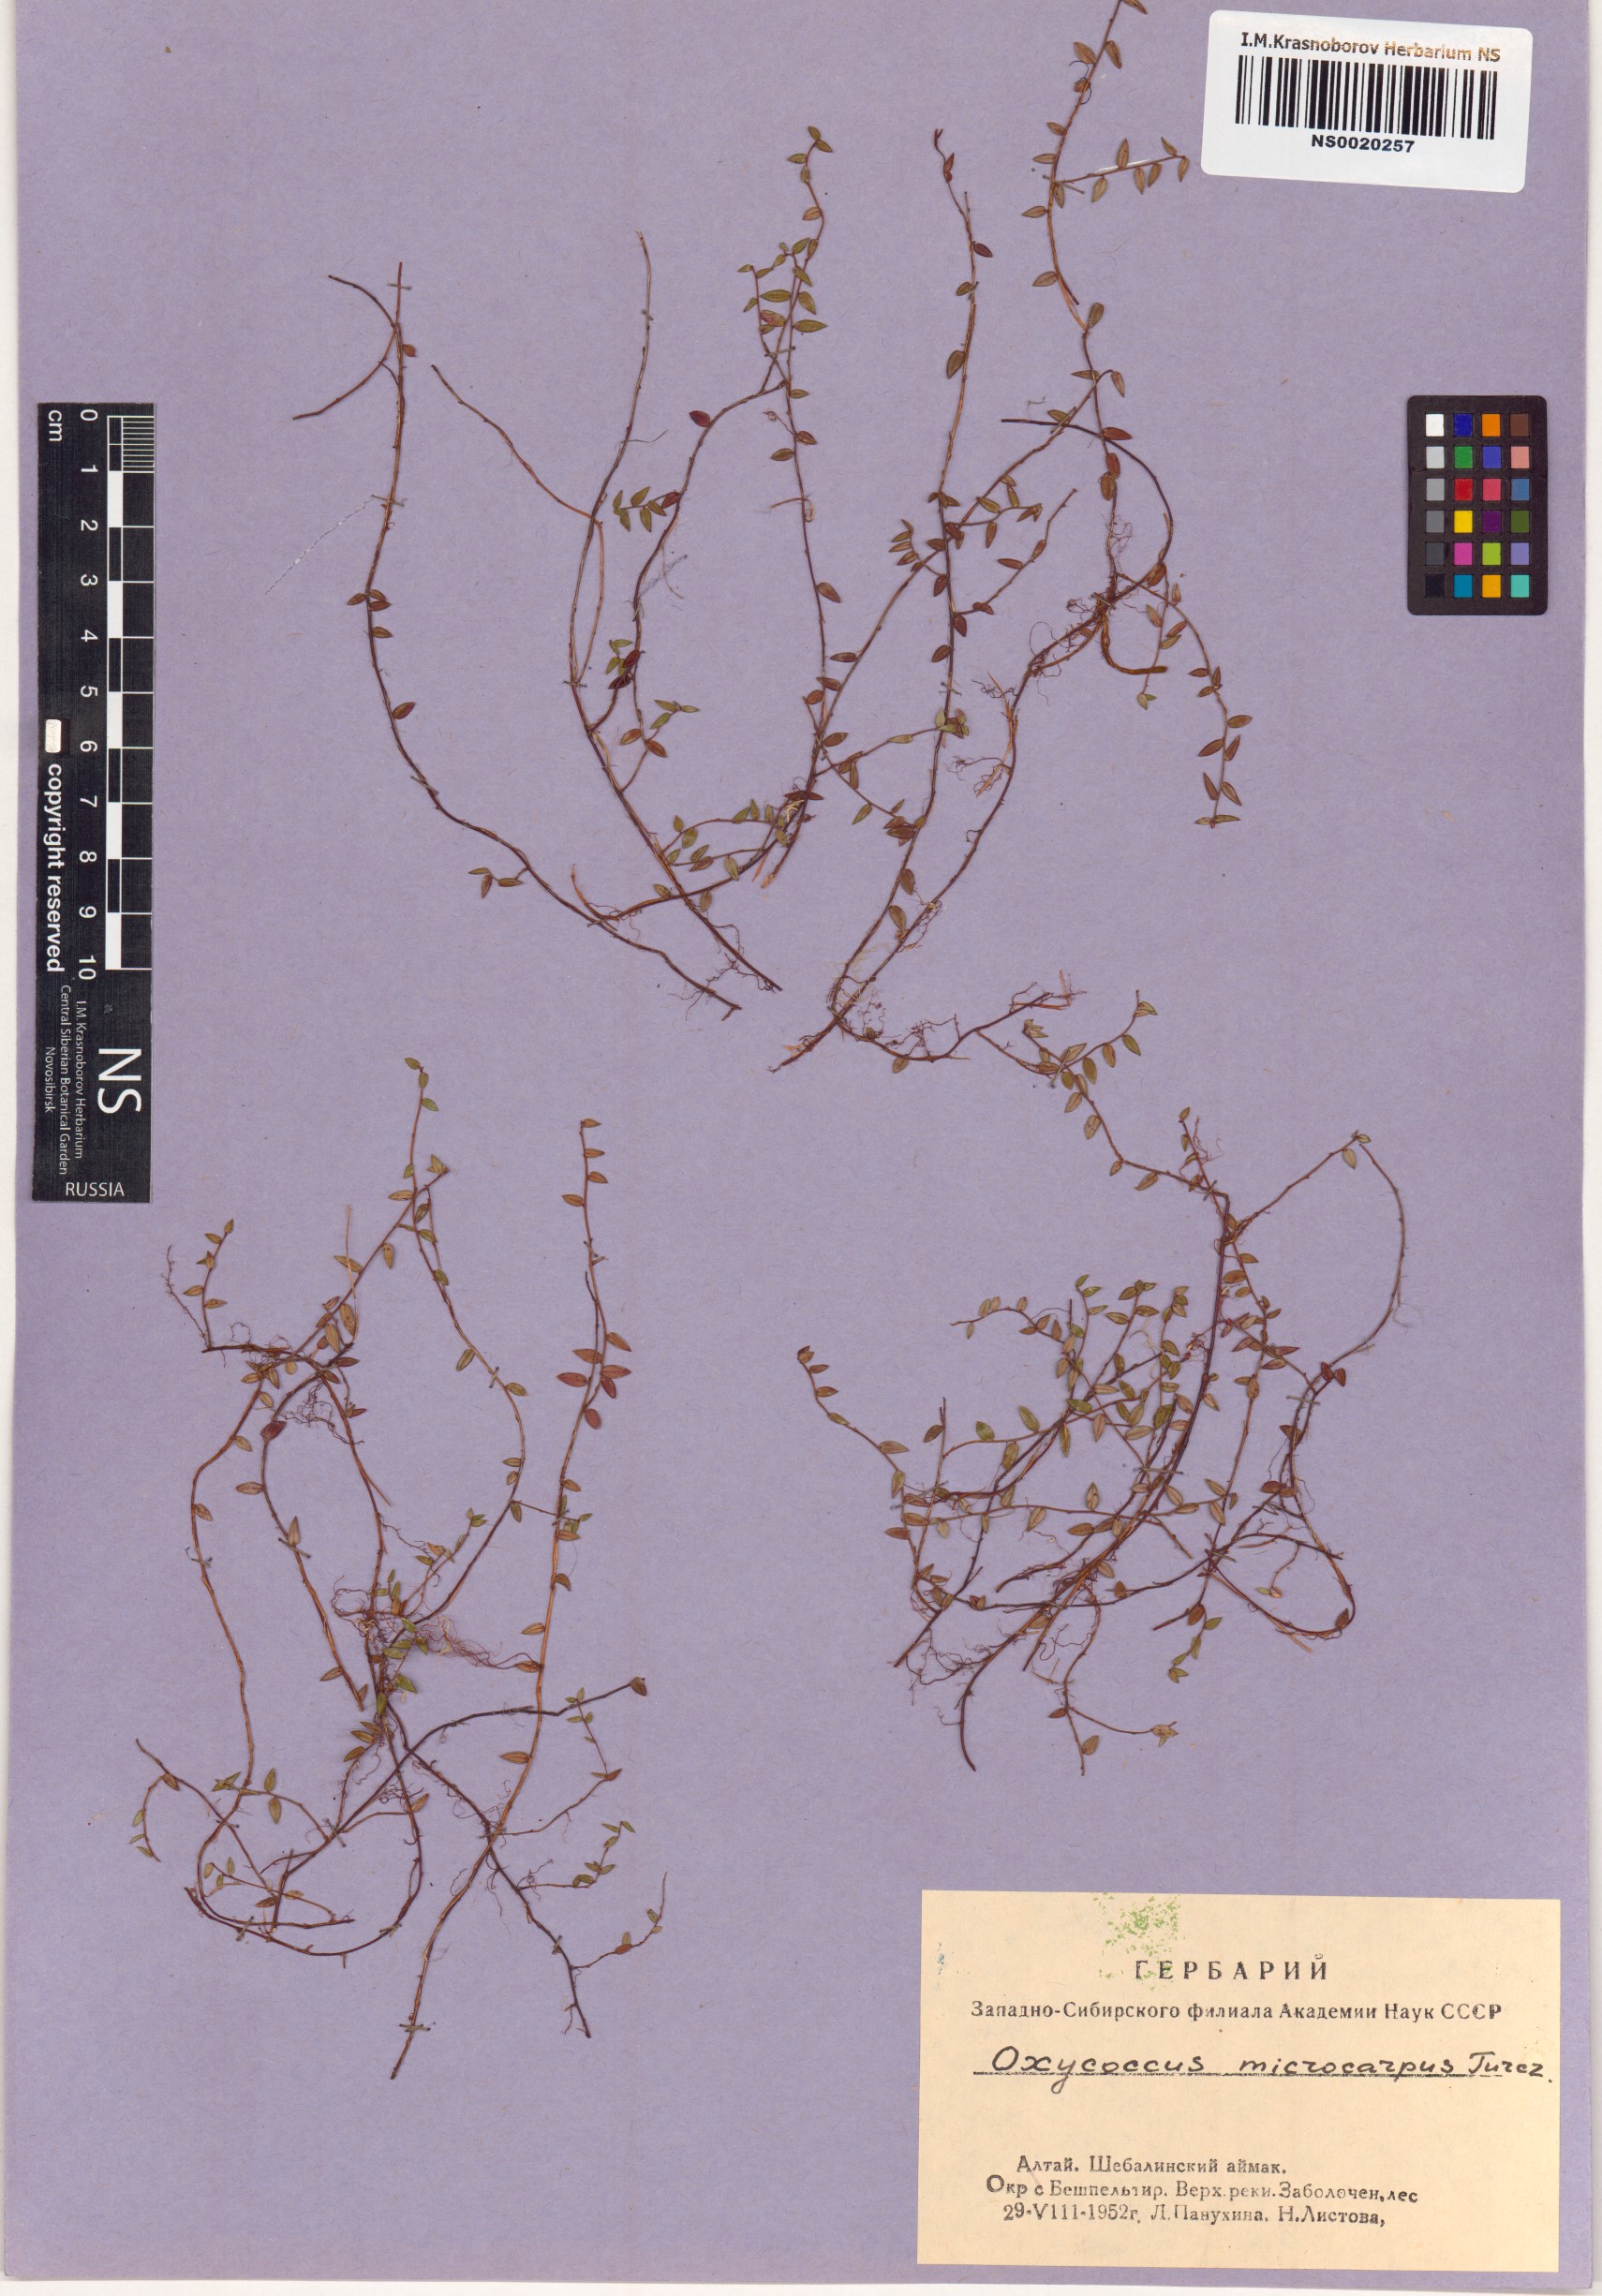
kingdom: Plantae
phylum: Tracheophyta
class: Magnoliopsida
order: Ericales
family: Ericaceae
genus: Vaccinium
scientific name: Vaccinium microcarpum
